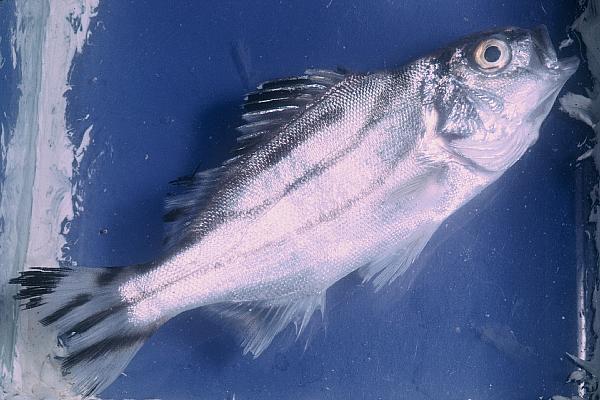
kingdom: Animalia
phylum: Chordata
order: Perciformes
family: Terapontidae
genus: Terapon
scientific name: Terapon jarbua
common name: Jarbua terapon
